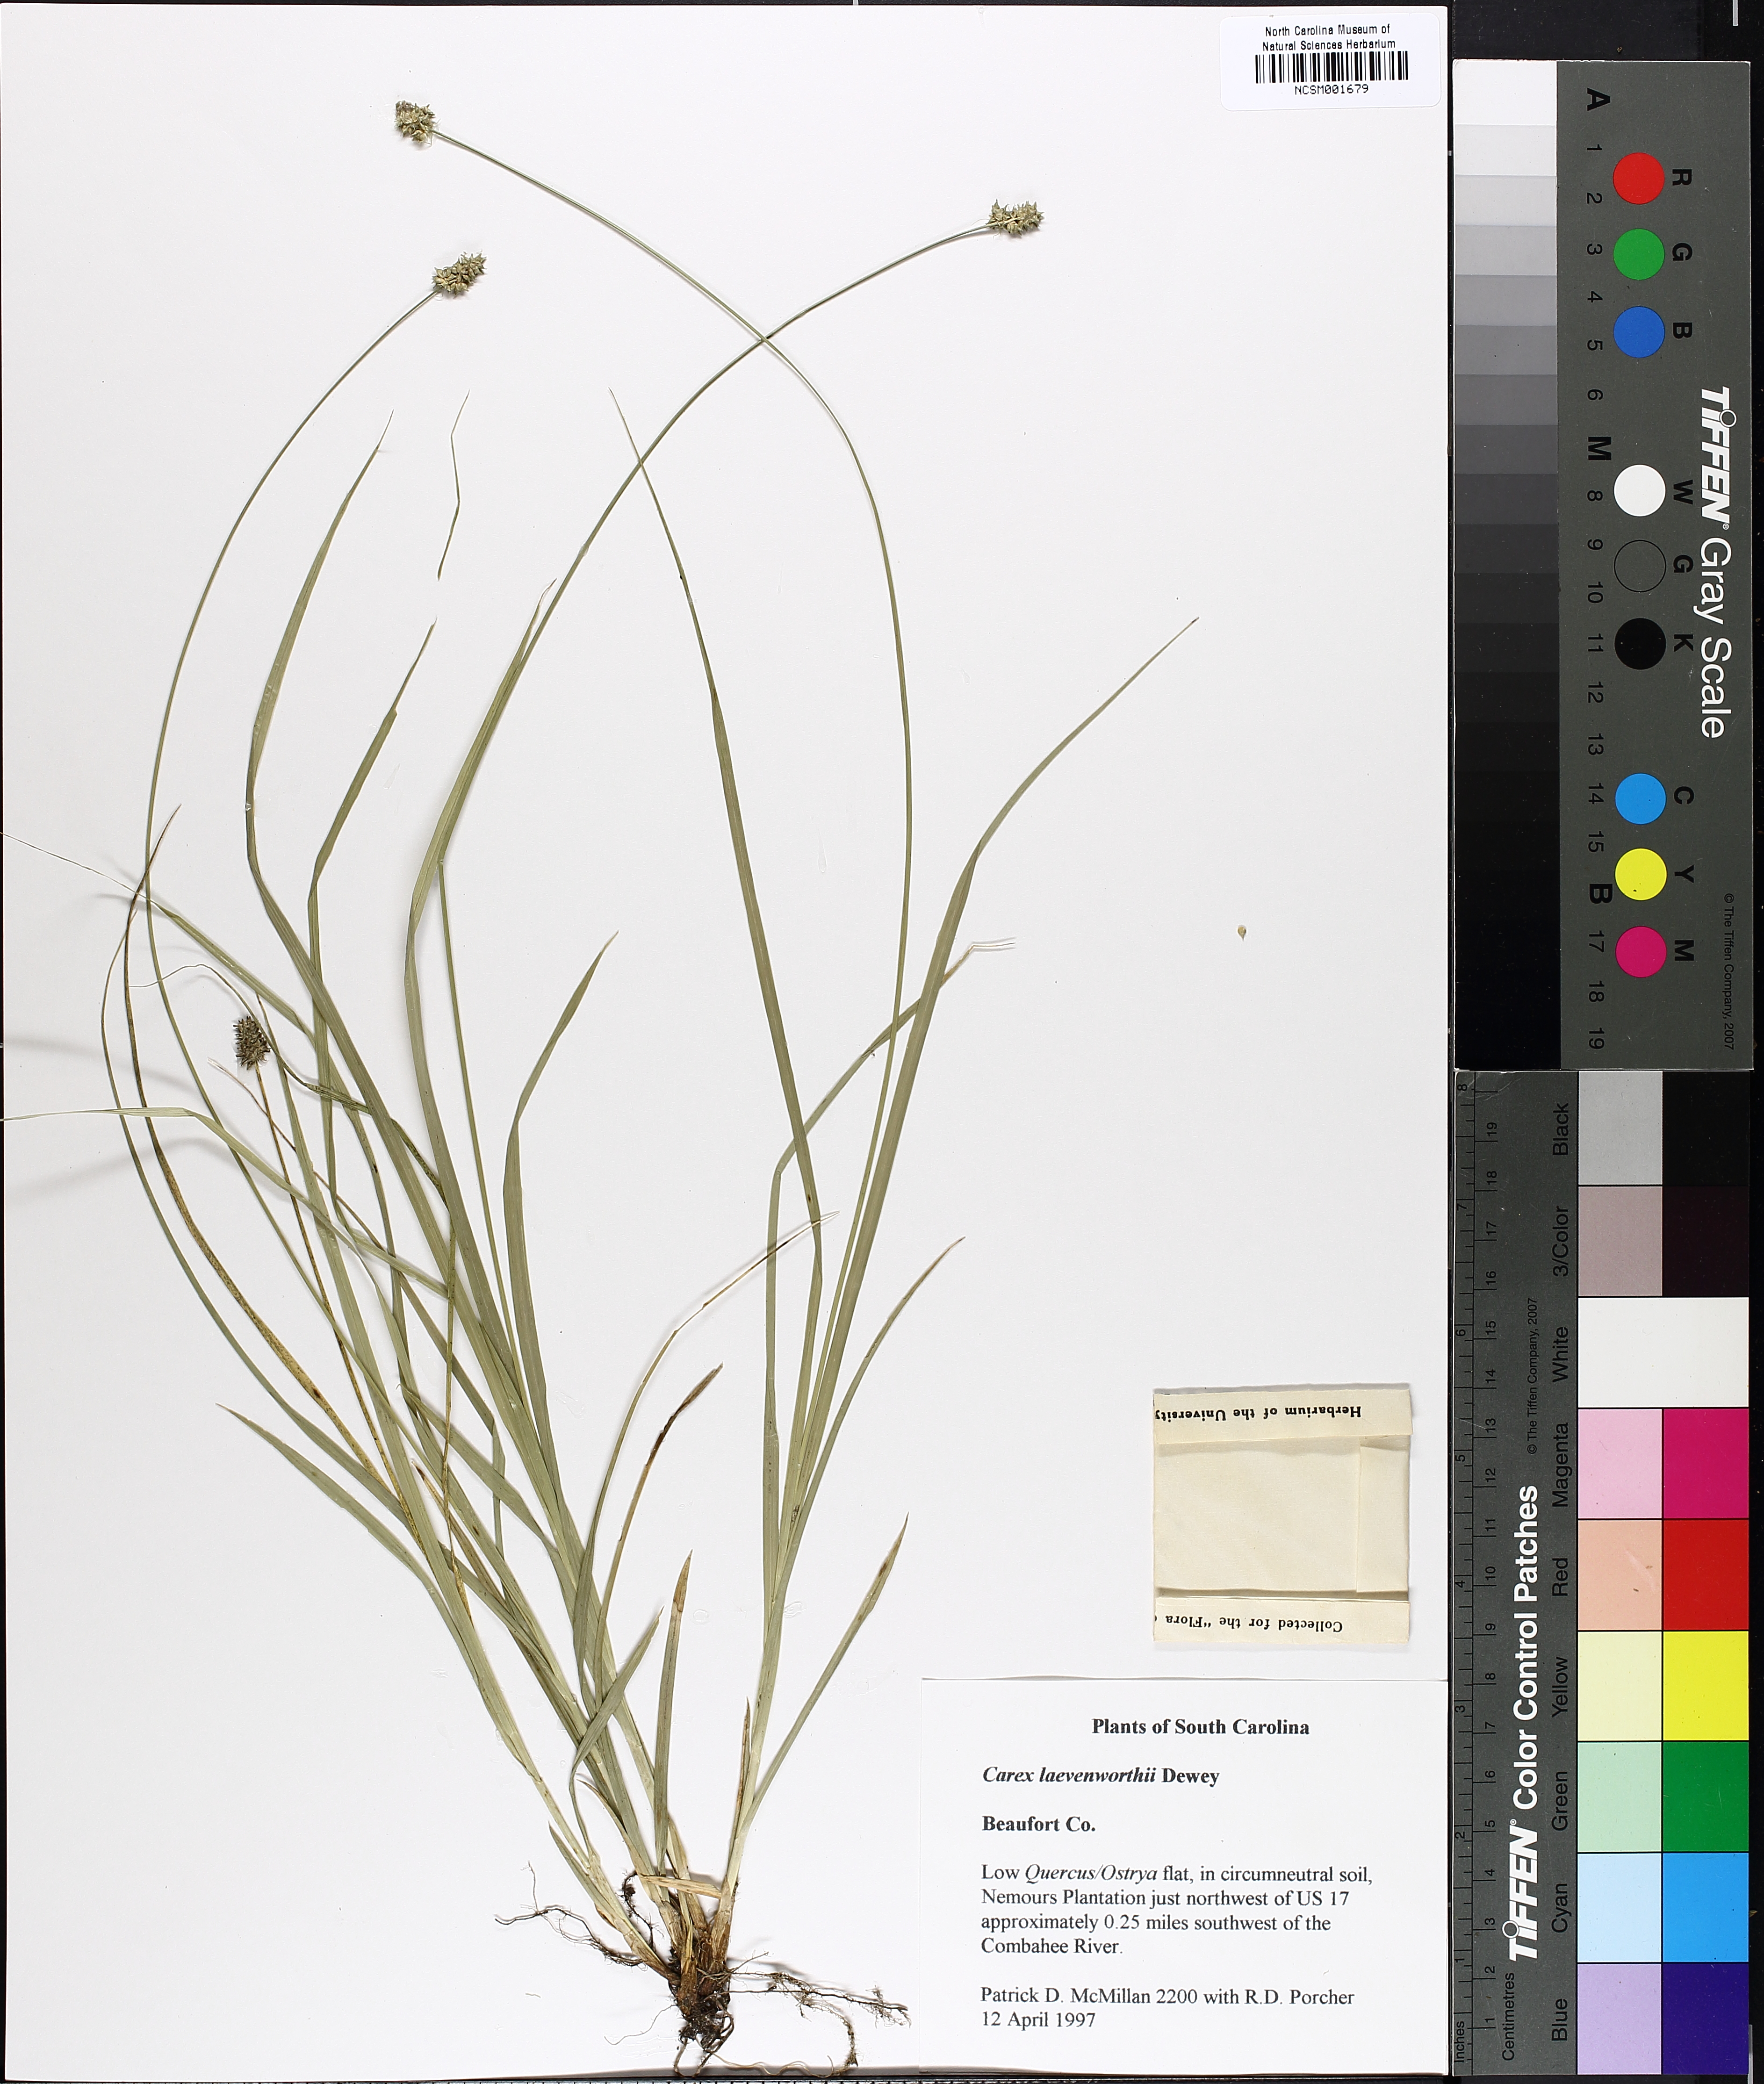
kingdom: Plantae
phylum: Tracheophyta
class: Liliopsida
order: Poales
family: Cyperaceae
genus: Carex
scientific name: Carex leavenworthii
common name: Leavenworth's bracted sedge
